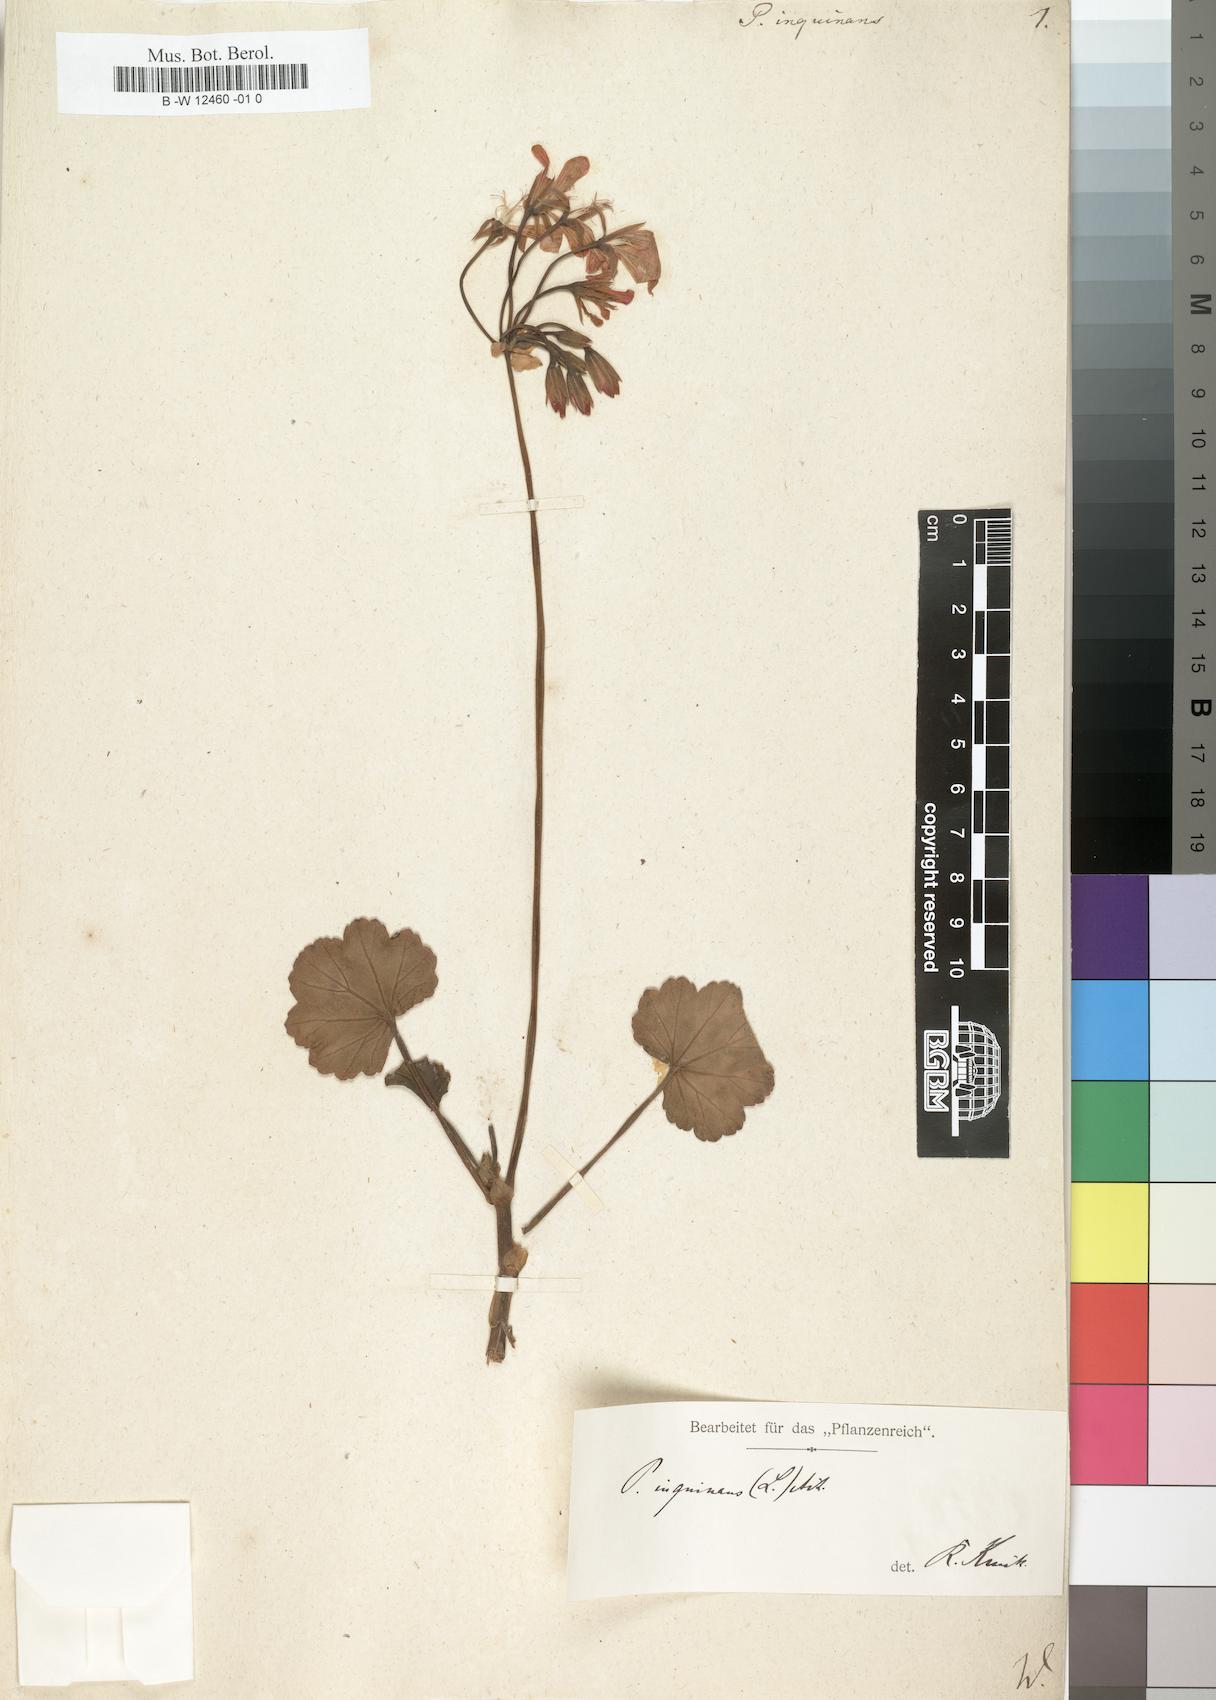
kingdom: Plantae
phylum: Tracheophyta
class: Magnoliopsida
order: Geraniales
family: Geraniaceae
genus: Pelargonium
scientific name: Pelargonium inquinans
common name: Scarlet geranium
